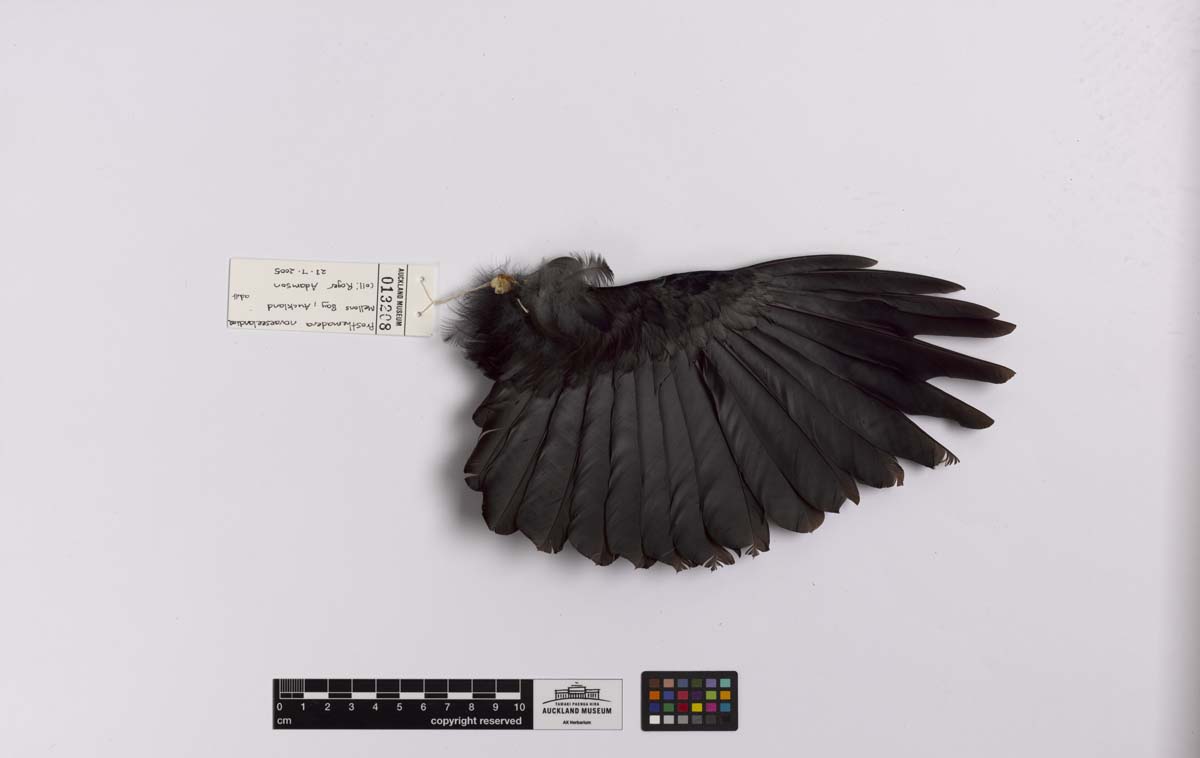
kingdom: Animalia
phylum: Chordata
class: Aves
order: Passeriformes
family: Meliphagidae
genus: Prosthemadera
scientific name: Prosthemadera novaeseelandiae
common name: Tui
